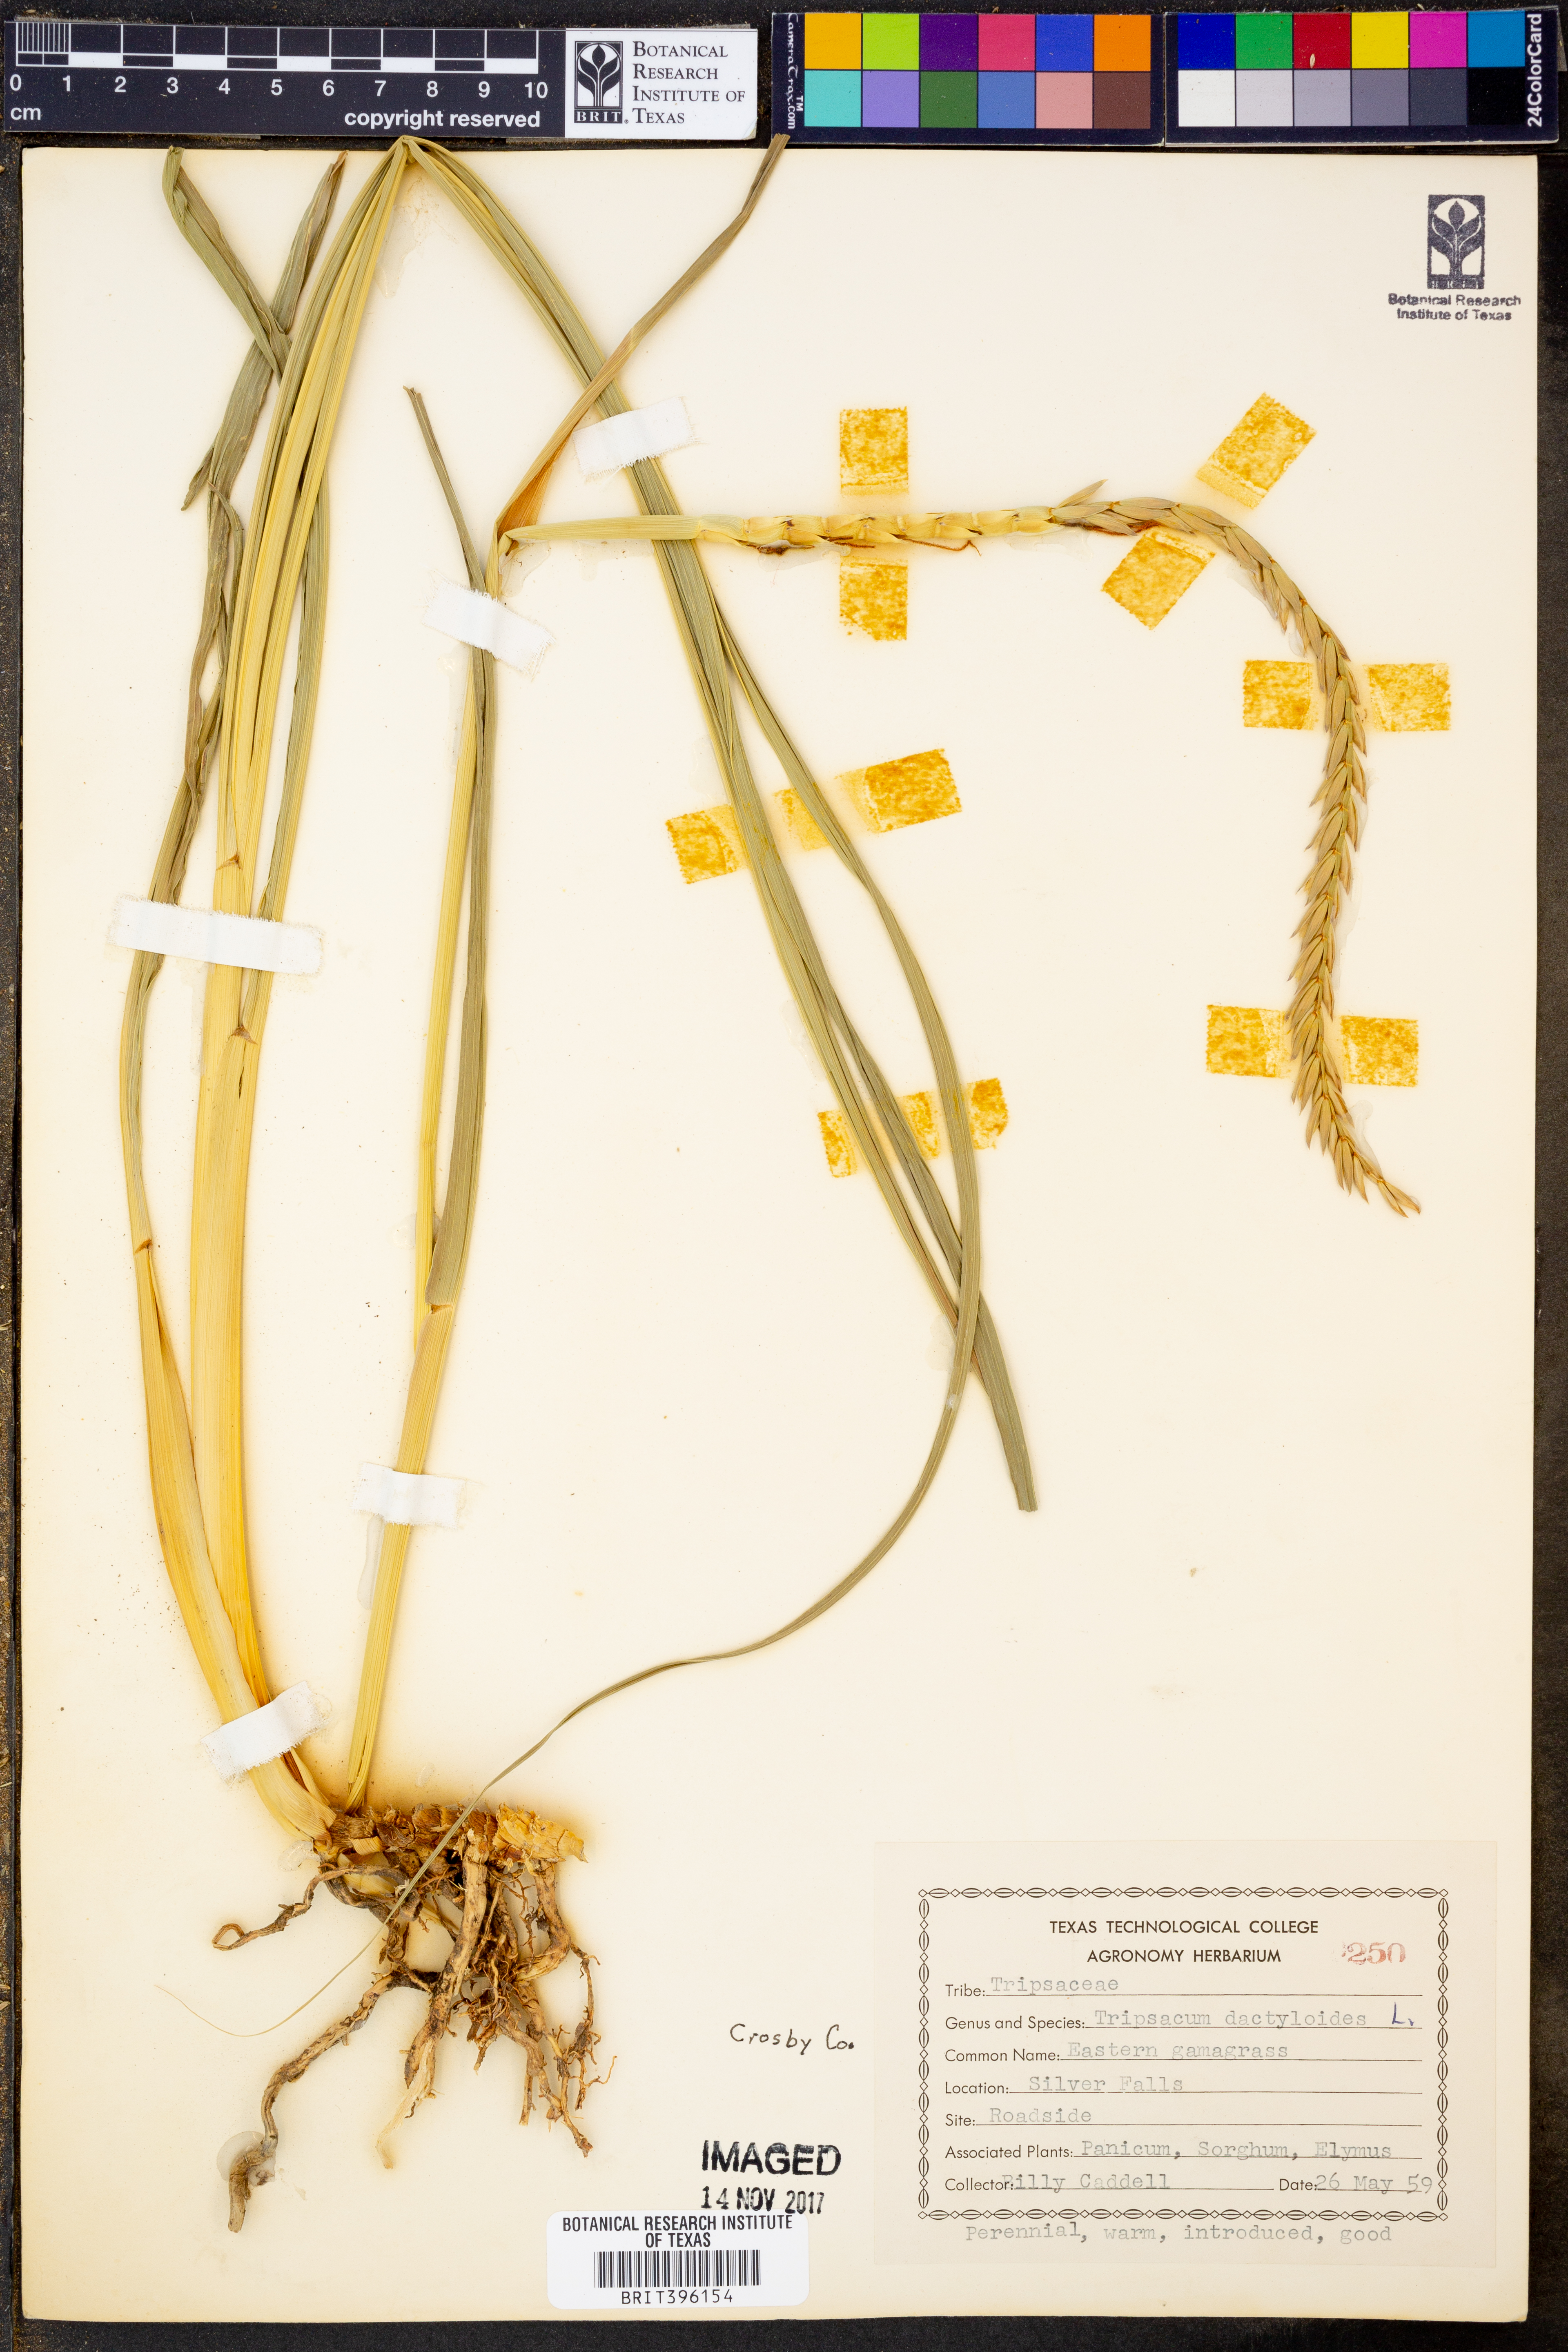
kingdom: Plantae
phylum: Tracheophyta
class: Liliopsida
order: Poales
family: Poaceae
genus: Tripsacum
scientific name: Tripsacum dactyloides
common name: Buffalo-grass
